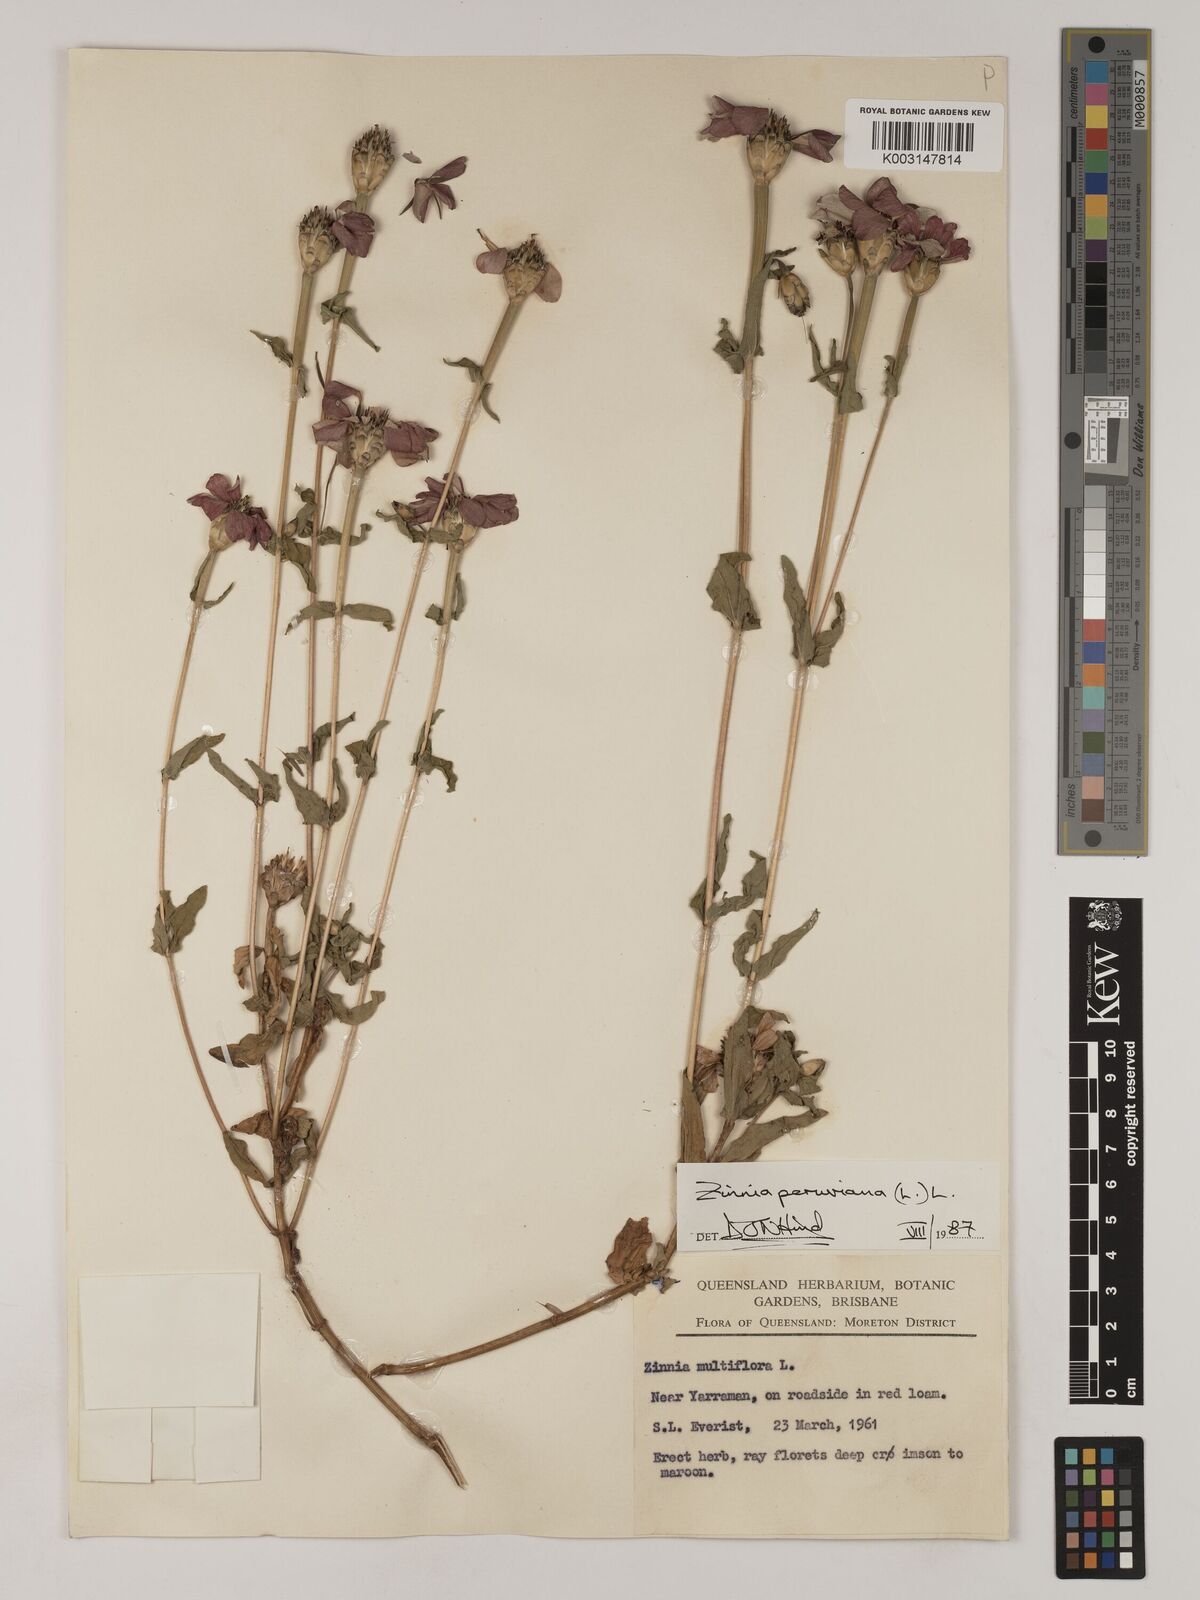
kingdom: Plantae
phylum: Tracheophyta
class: Magnoliopsida
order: Asterales
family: Asteraceae
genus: Zinnia
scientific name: Zinnia peruviana
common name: Peruvian zinnia
